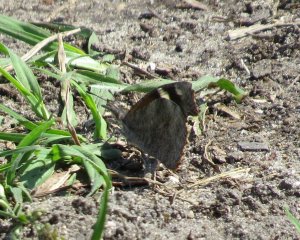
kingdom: Animalia
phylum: Arthropoda
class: Insecta
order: Lepidoptera
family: Nymphalidae
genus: Libytheana
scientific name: Libytheana carinenta
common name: American Snout
